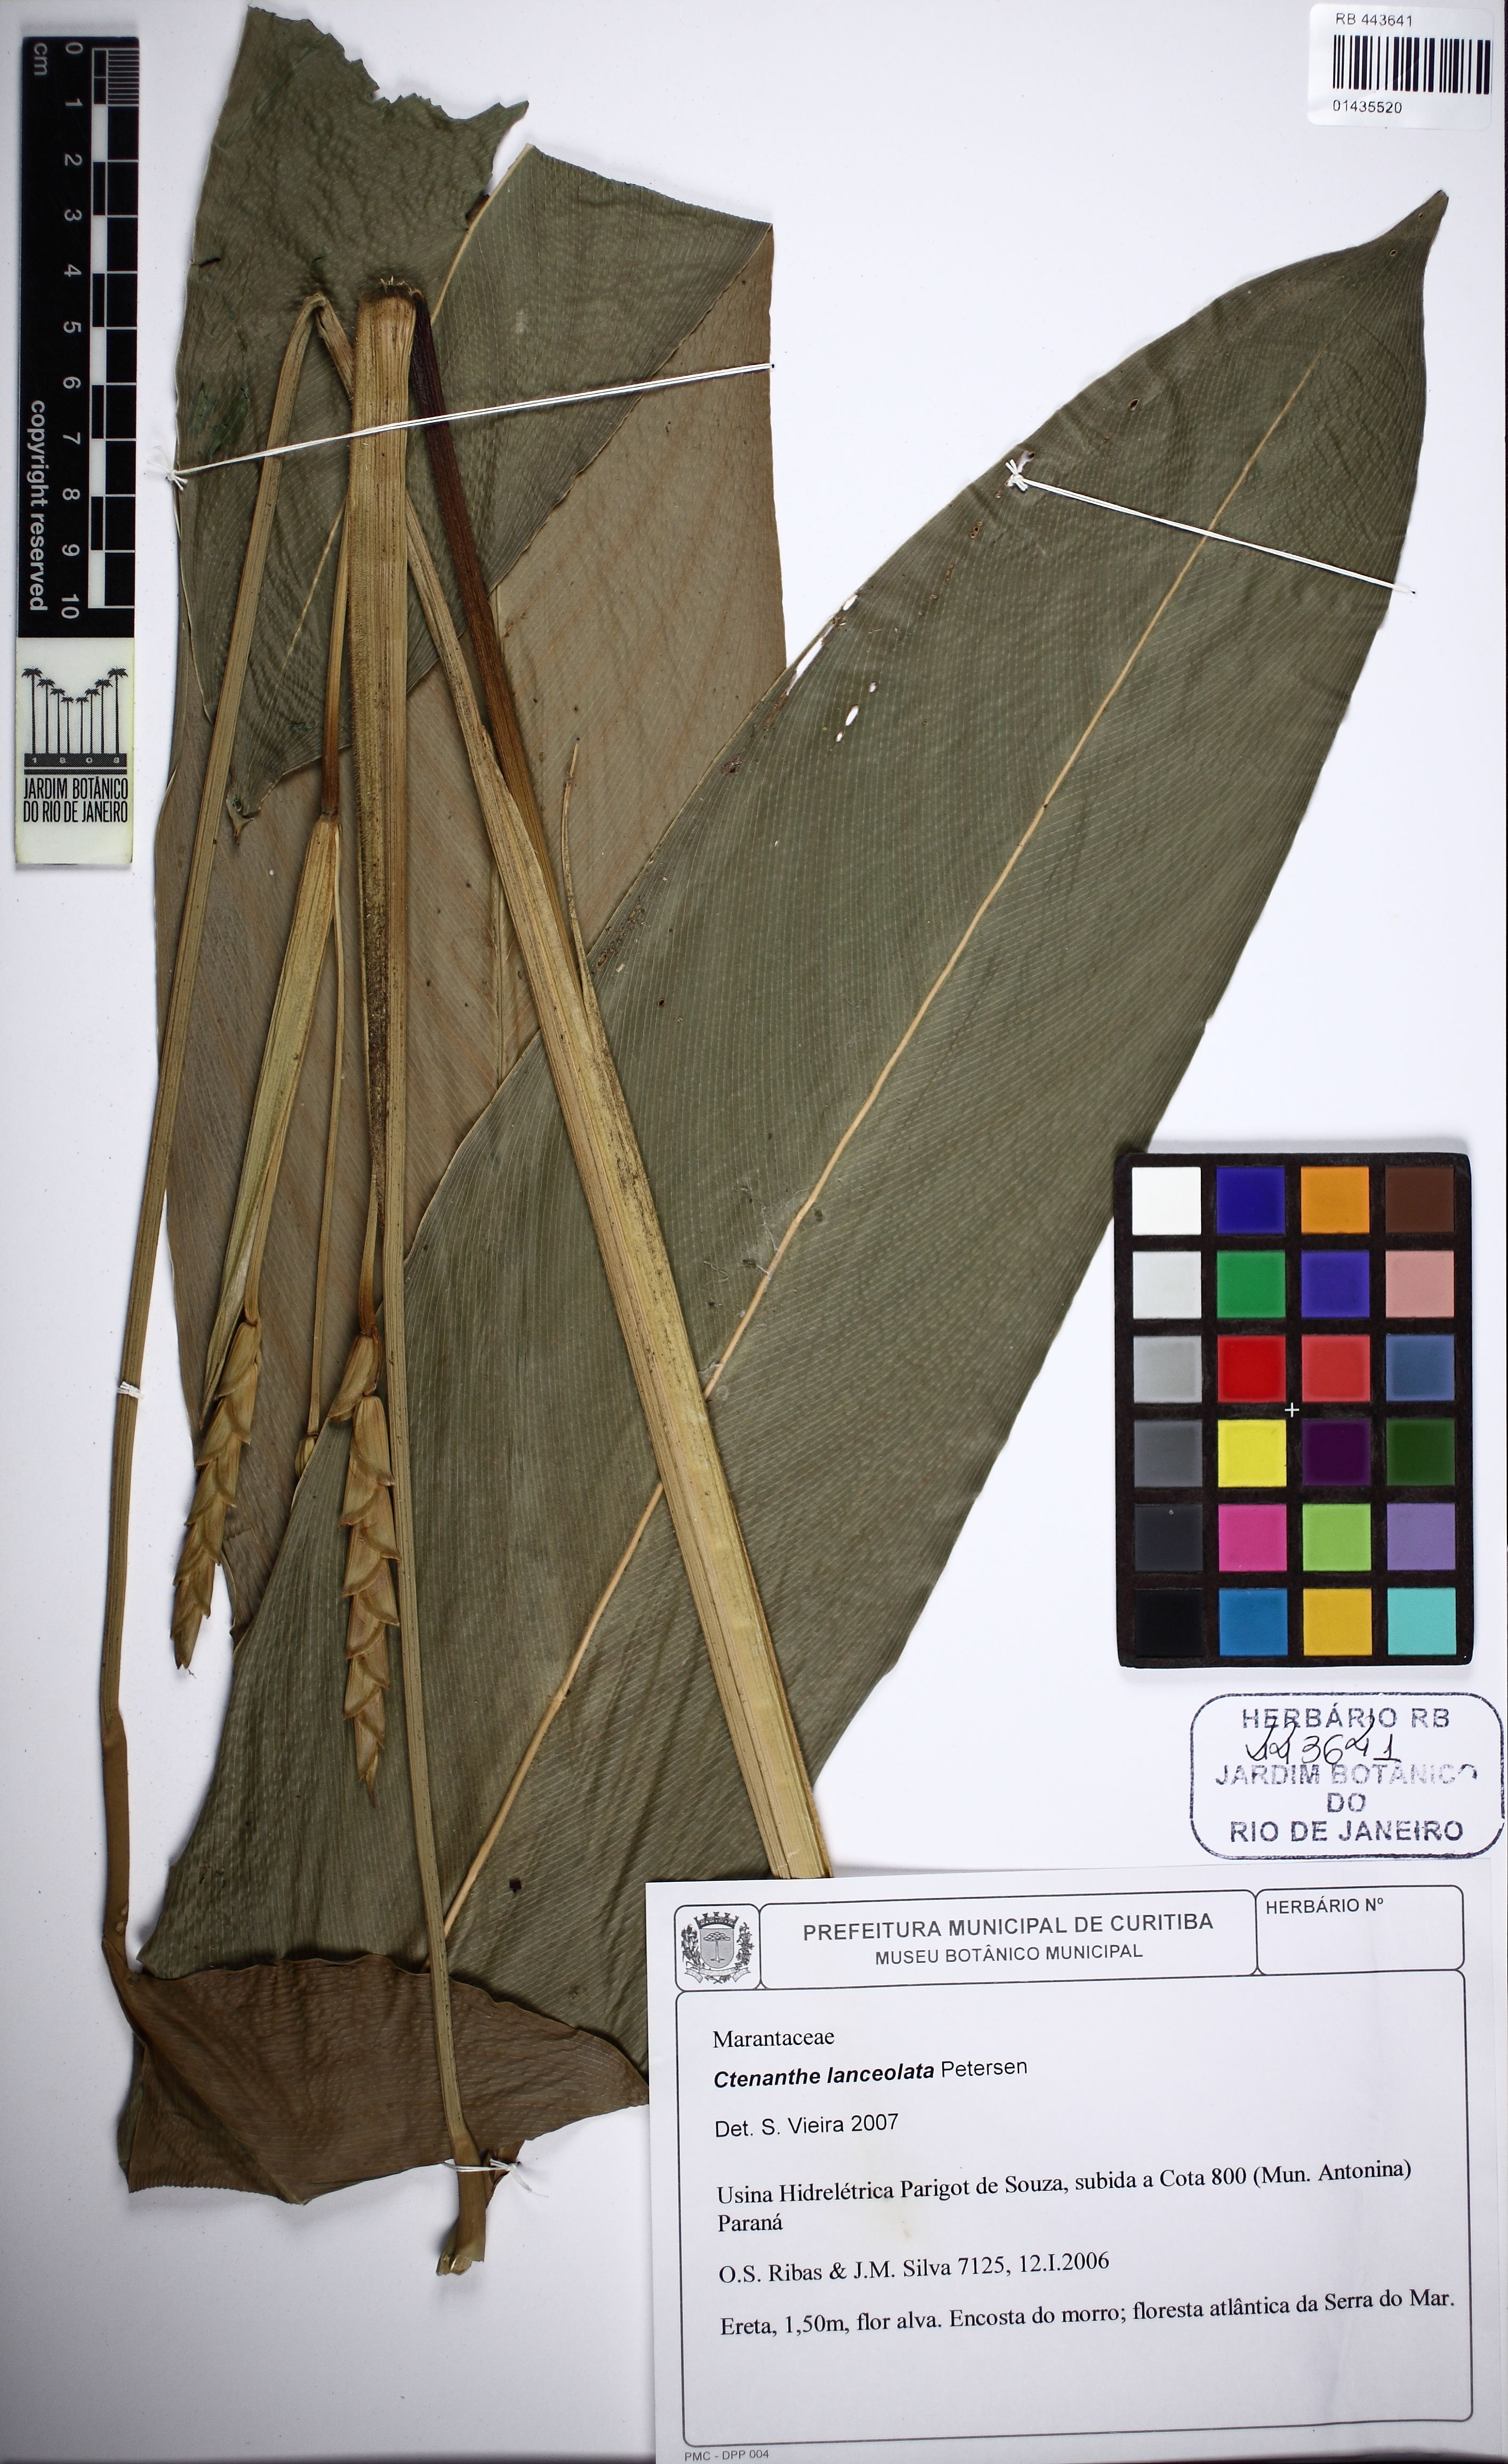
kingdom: Plantae
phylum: Tracheophyta
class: Liliopsida
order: Zingiberales
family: Marantaceae
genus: Ctenanthe
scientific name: Ctenanthe lanceolata
